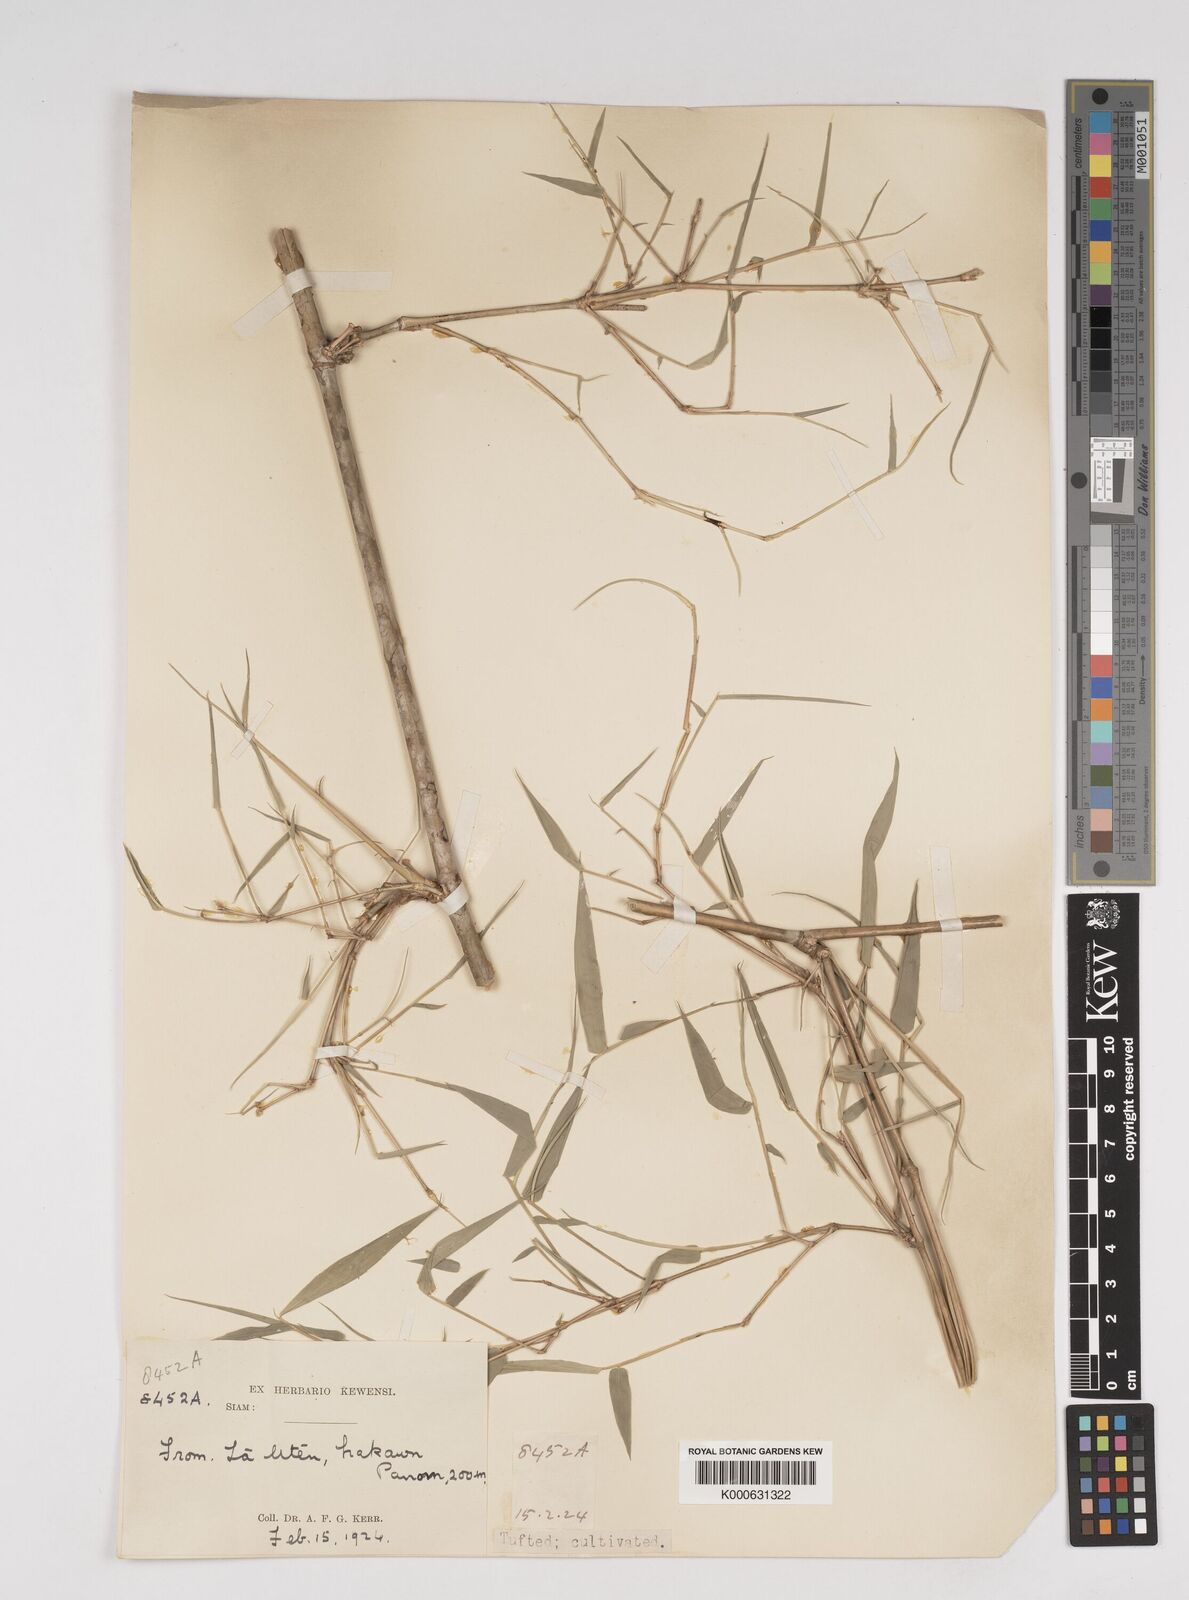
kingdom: Plantae
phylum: Tracheophyta
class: Liliopsida
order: Poales
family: Poaceae
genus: Dendrocalamus
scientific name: Dendrocalamus dumosus
